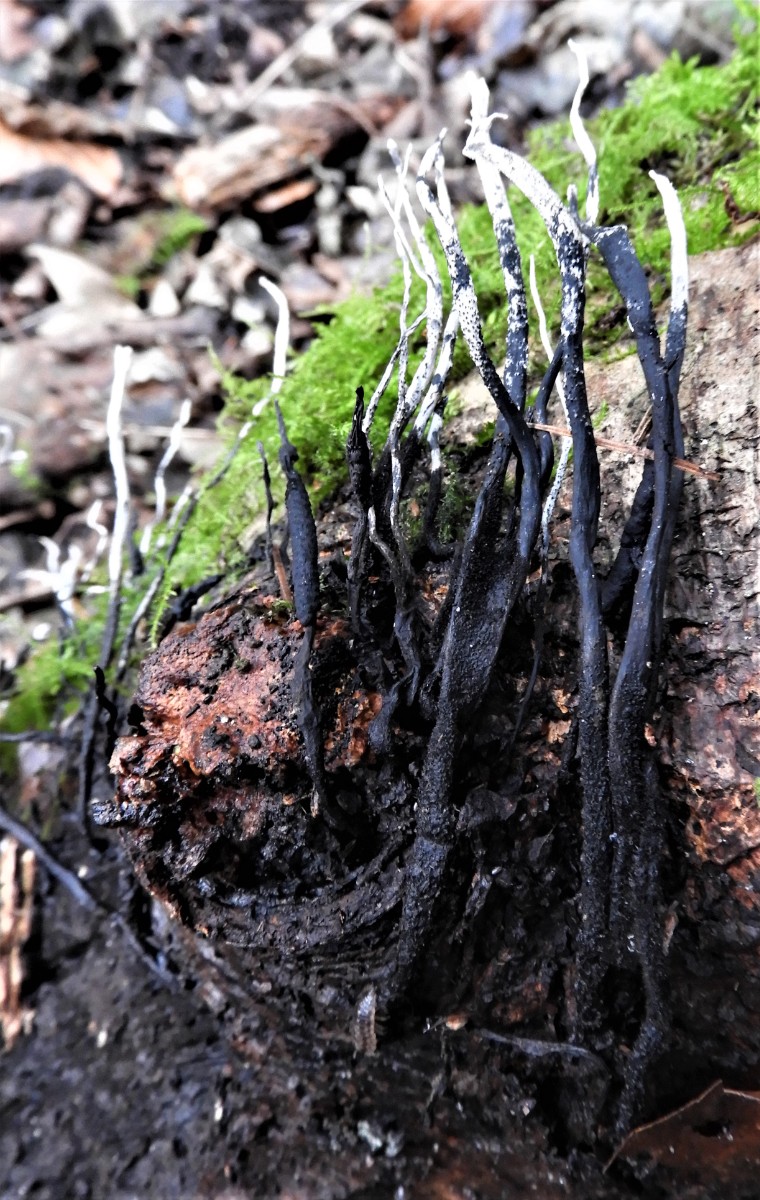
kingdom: Fungi
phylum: Ascomycota
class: Sordariomycetes
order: Xylariales
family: Xylariaceae
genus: Xylaria
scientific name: Xylaria hypoxylon
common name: grenet stødsvamp
